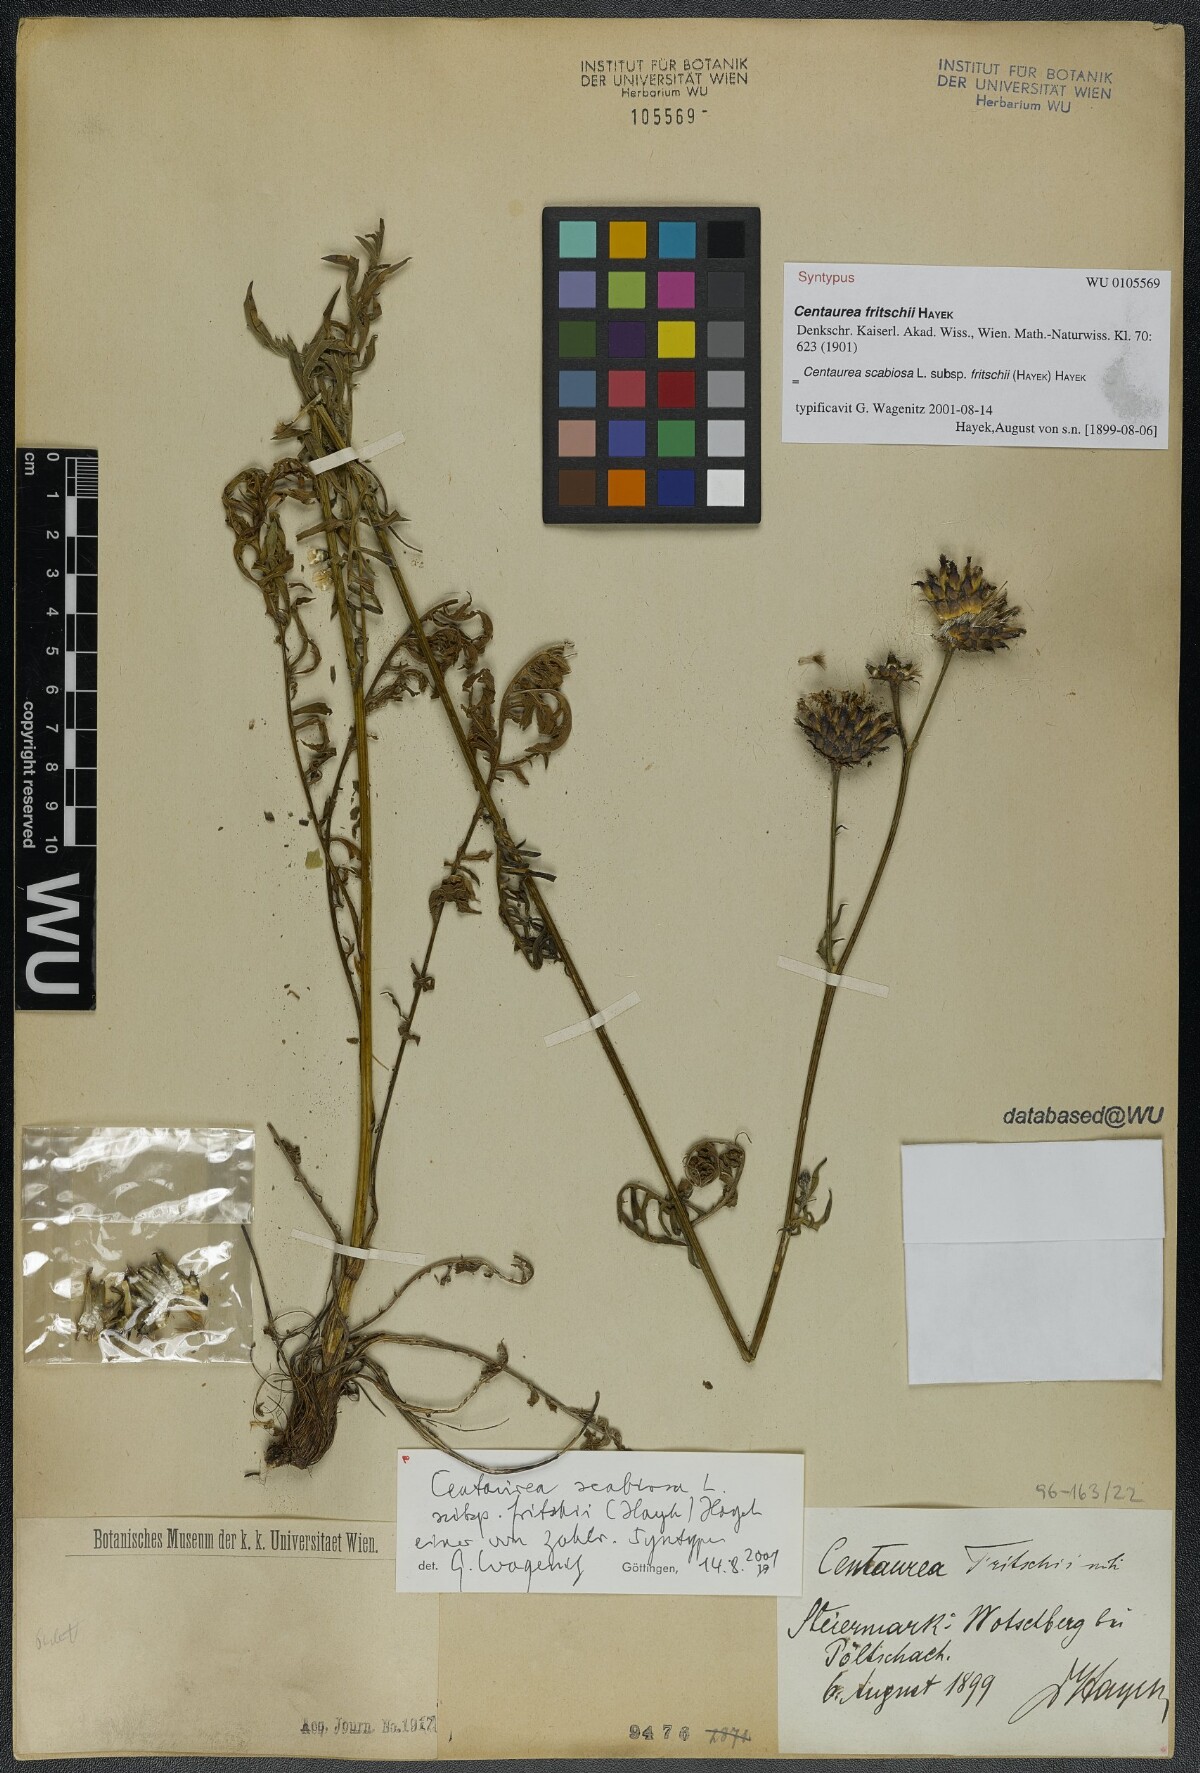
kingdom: Plantae
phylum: Tracheophyta
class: Magnoliopsida
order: Asterales
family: Asteraceae
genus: Centaurea
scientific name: Centaurea scabiosa
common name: Greater knapweed
